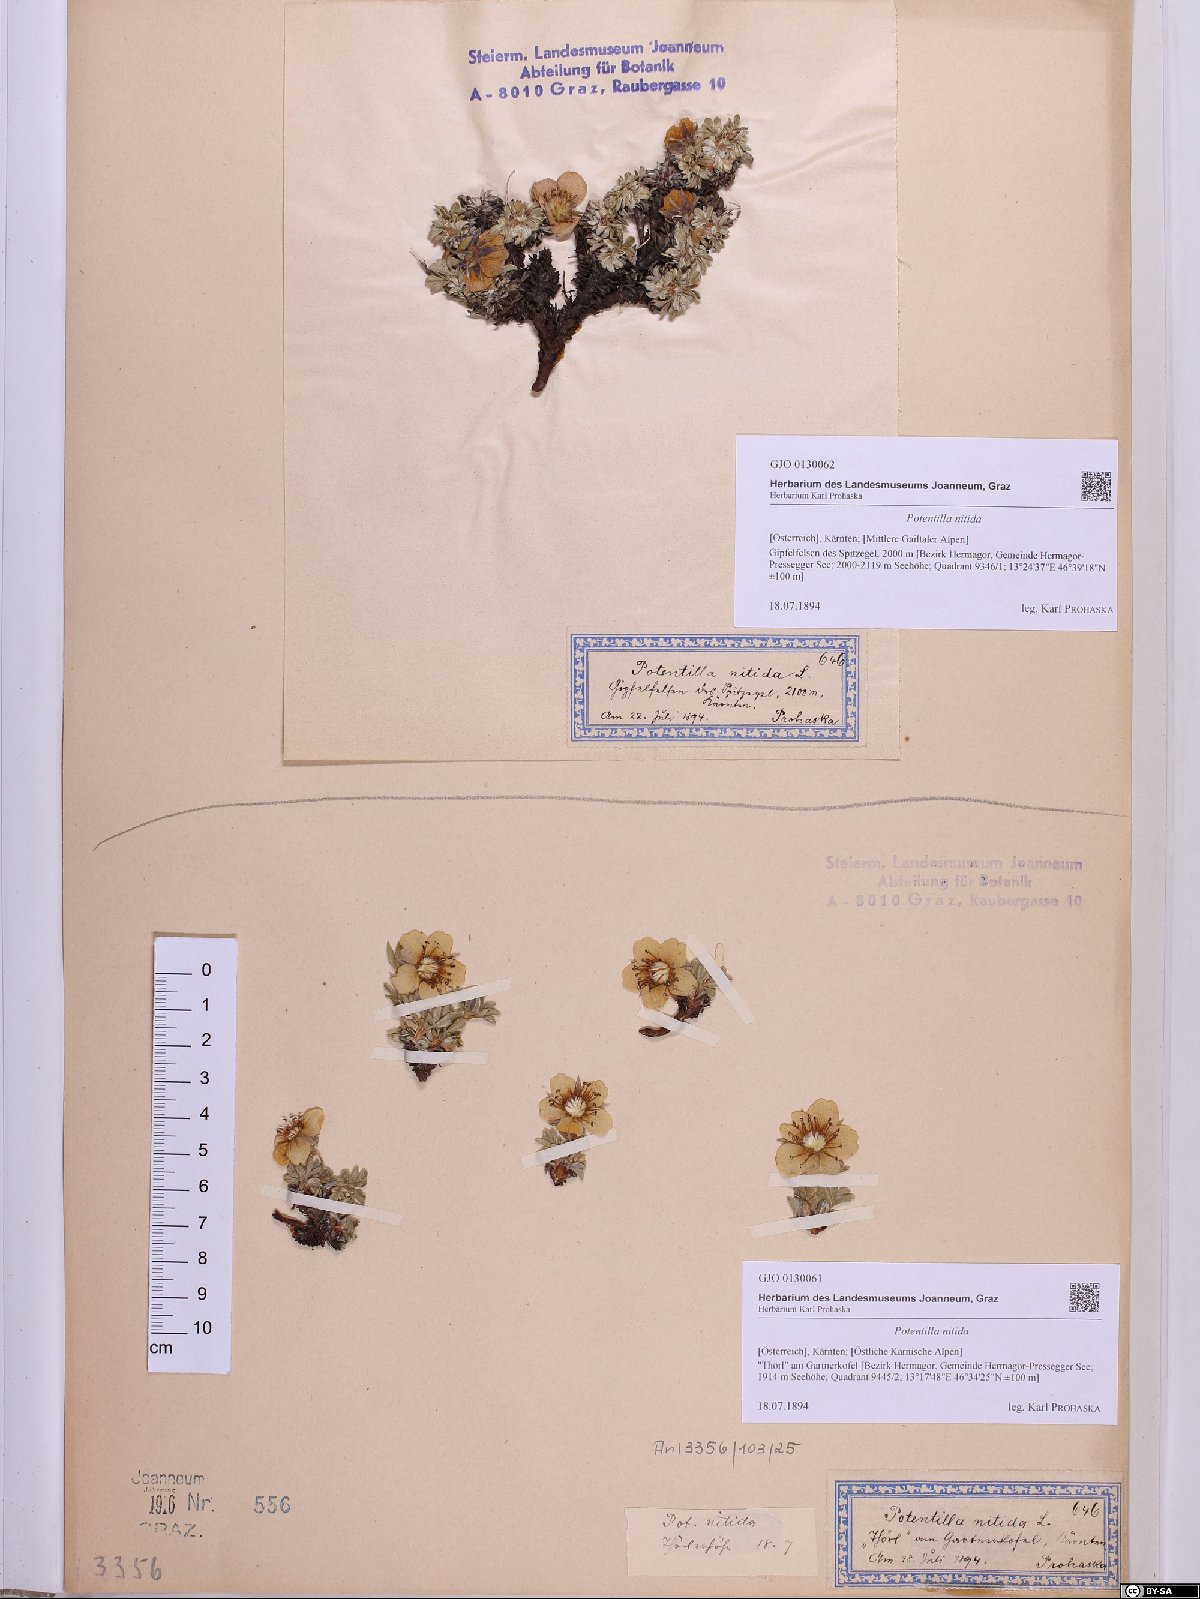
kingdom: Plantae
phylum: Tracheophyta
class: Magnoliopsida
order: Rosales
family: Rosaceae
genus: Potentilla
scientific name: Potentilla nitida
